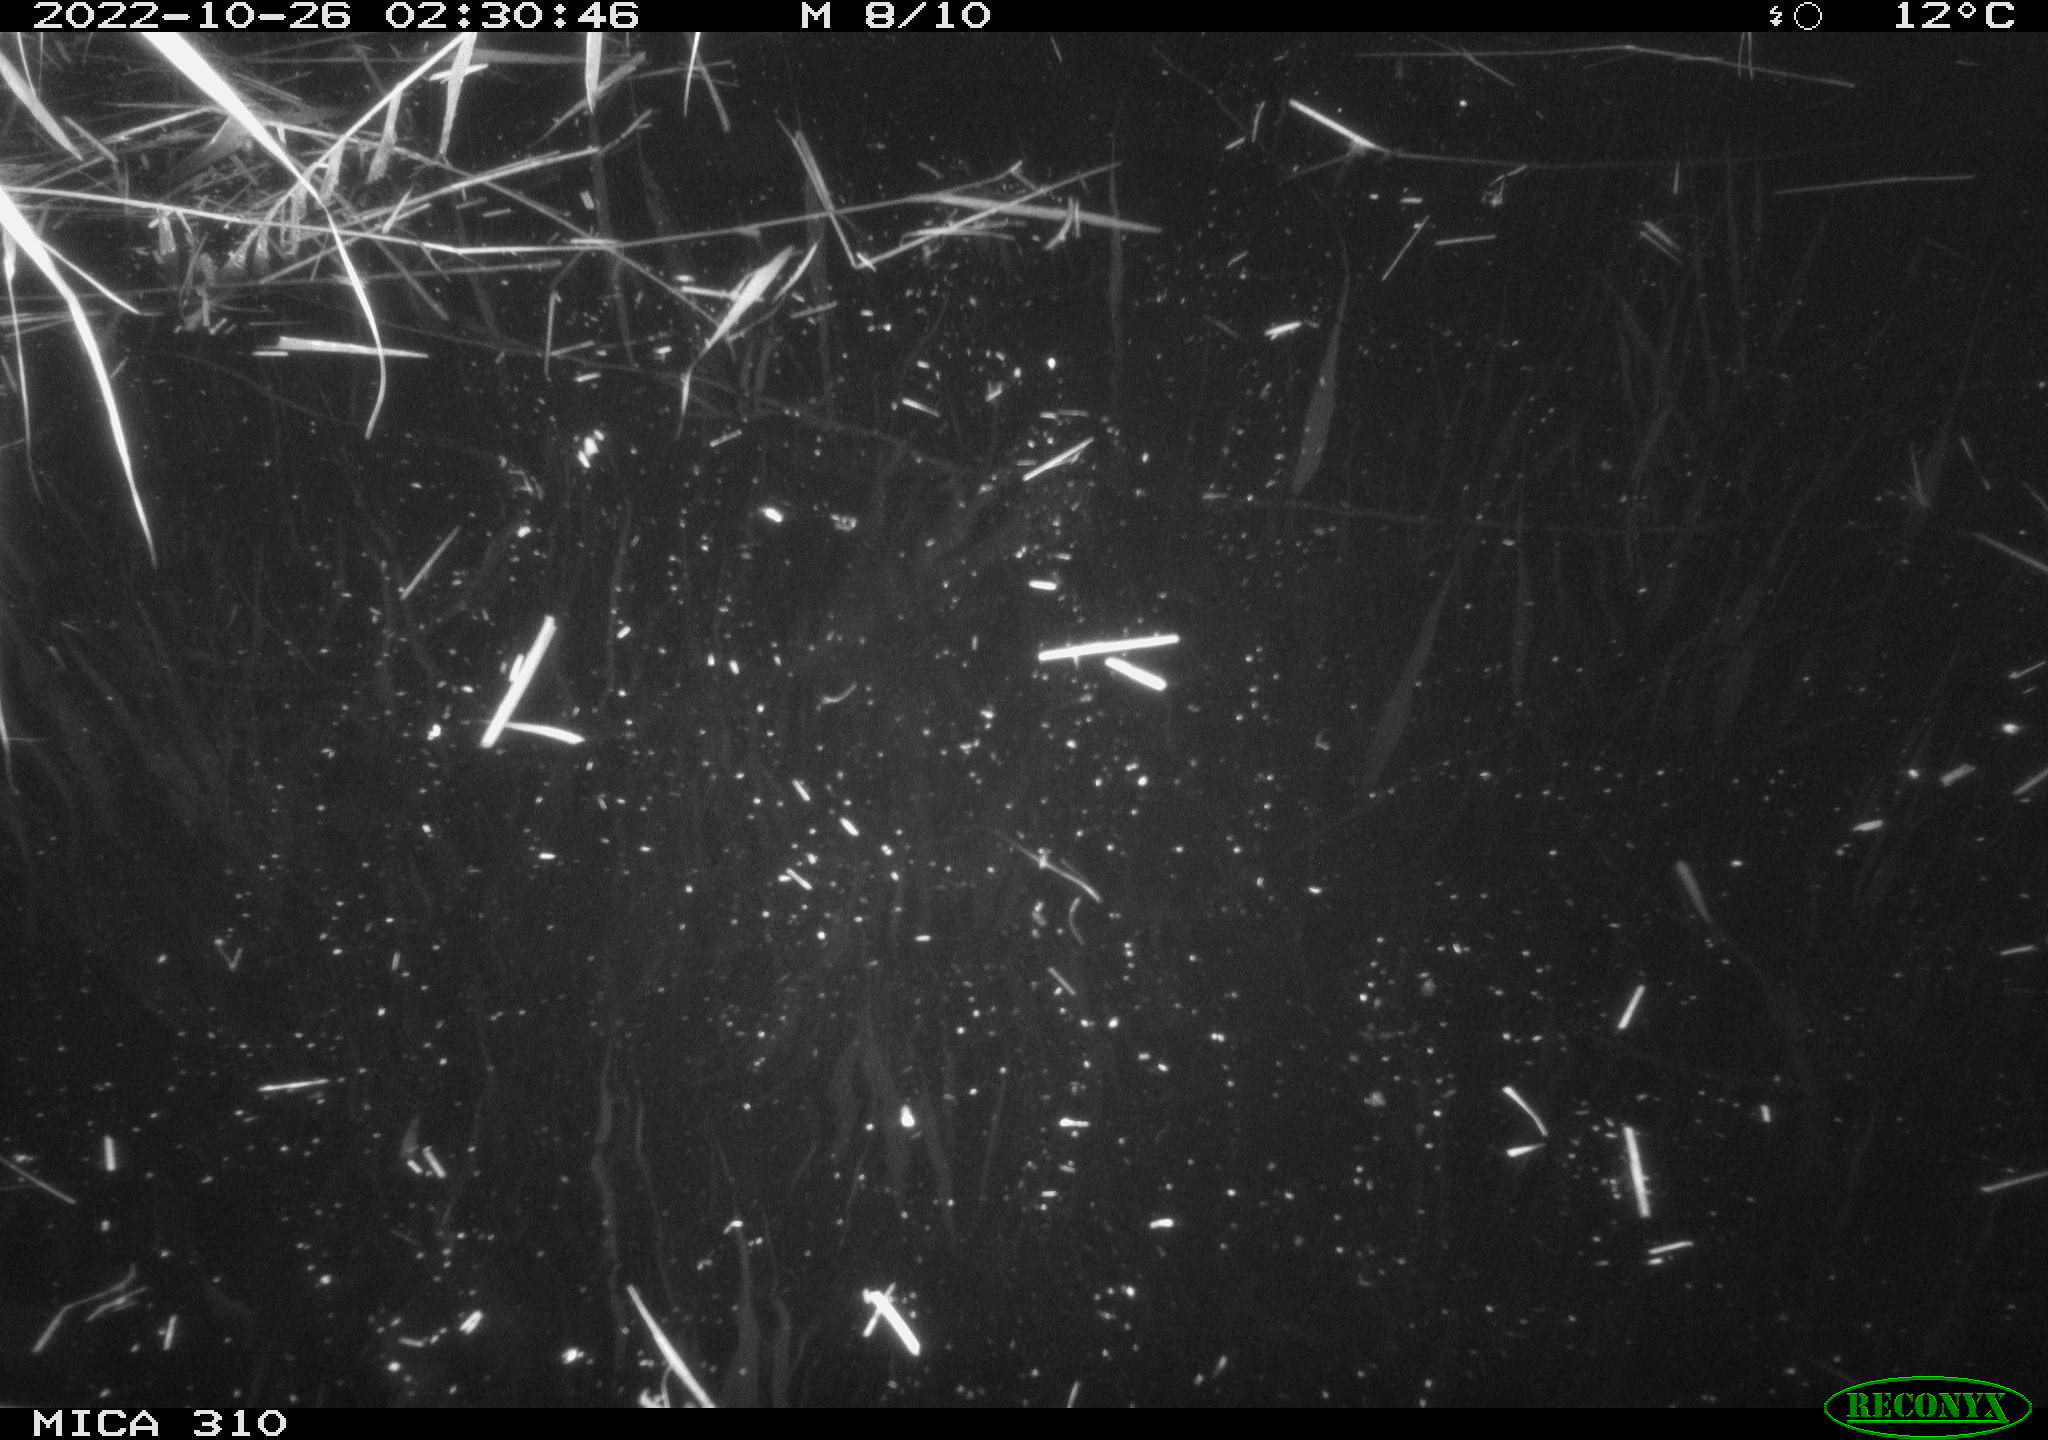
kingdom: Animalia
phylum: Chordata
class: Mammalia
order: Rodentia
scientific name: Rodentia
